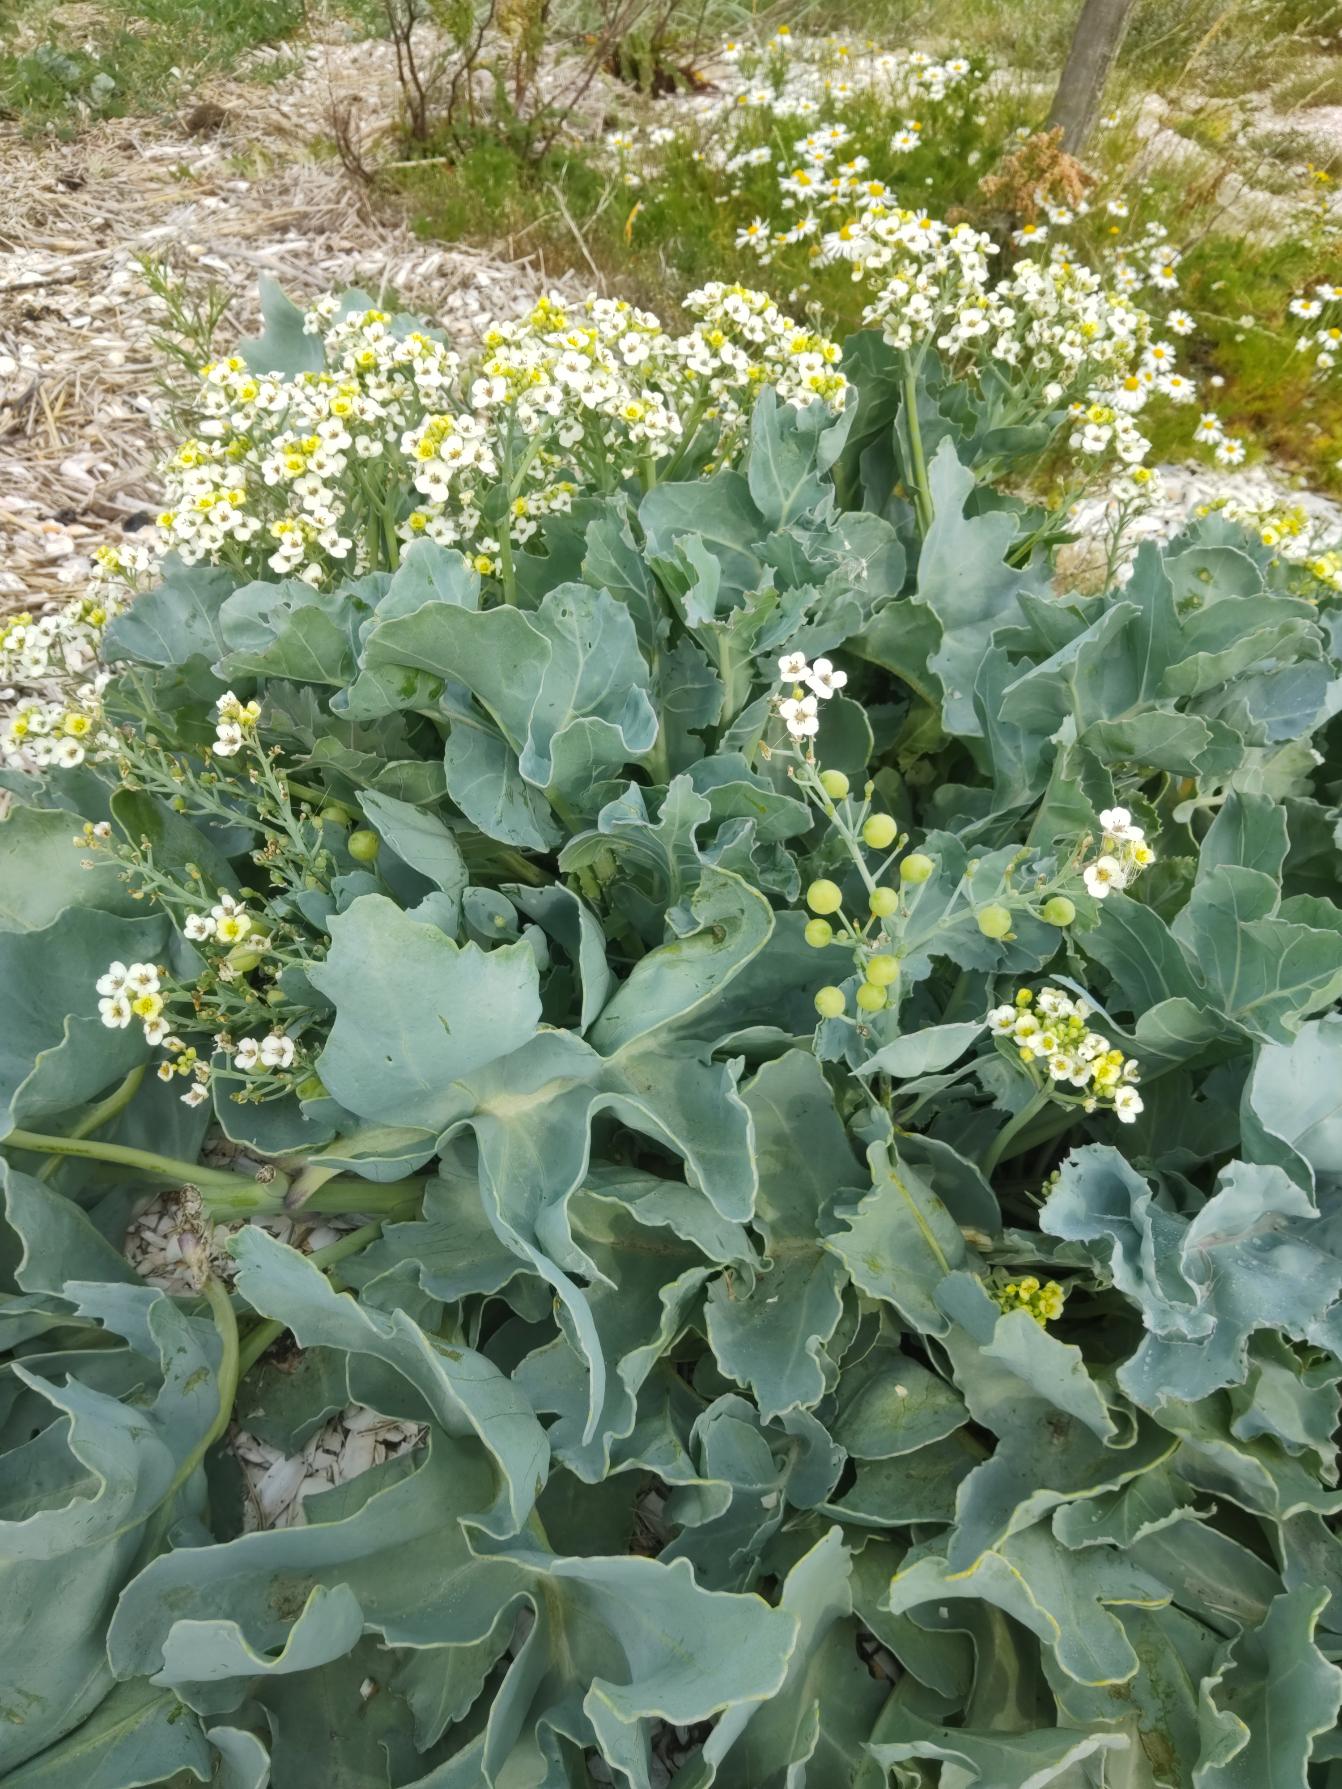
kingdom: Plantae
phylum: Tracheophyta
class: Magnoliopsida
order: Brassicales
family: Brassicaceae
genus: Crambe
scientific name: Crambe maritima
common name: Strandkål
